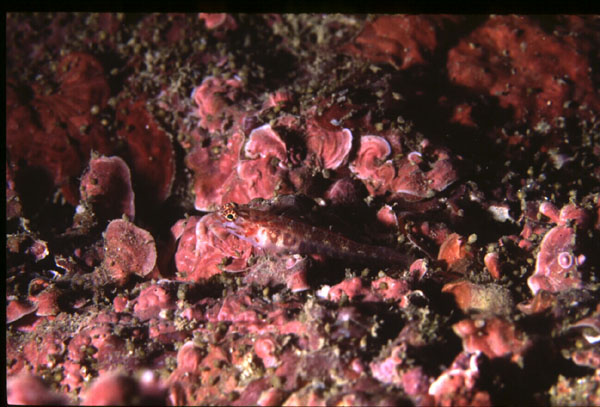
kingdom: Animalia
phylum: Chordata
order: Perciformes
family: Gobiidae
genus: Eviota
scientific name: Eviota
